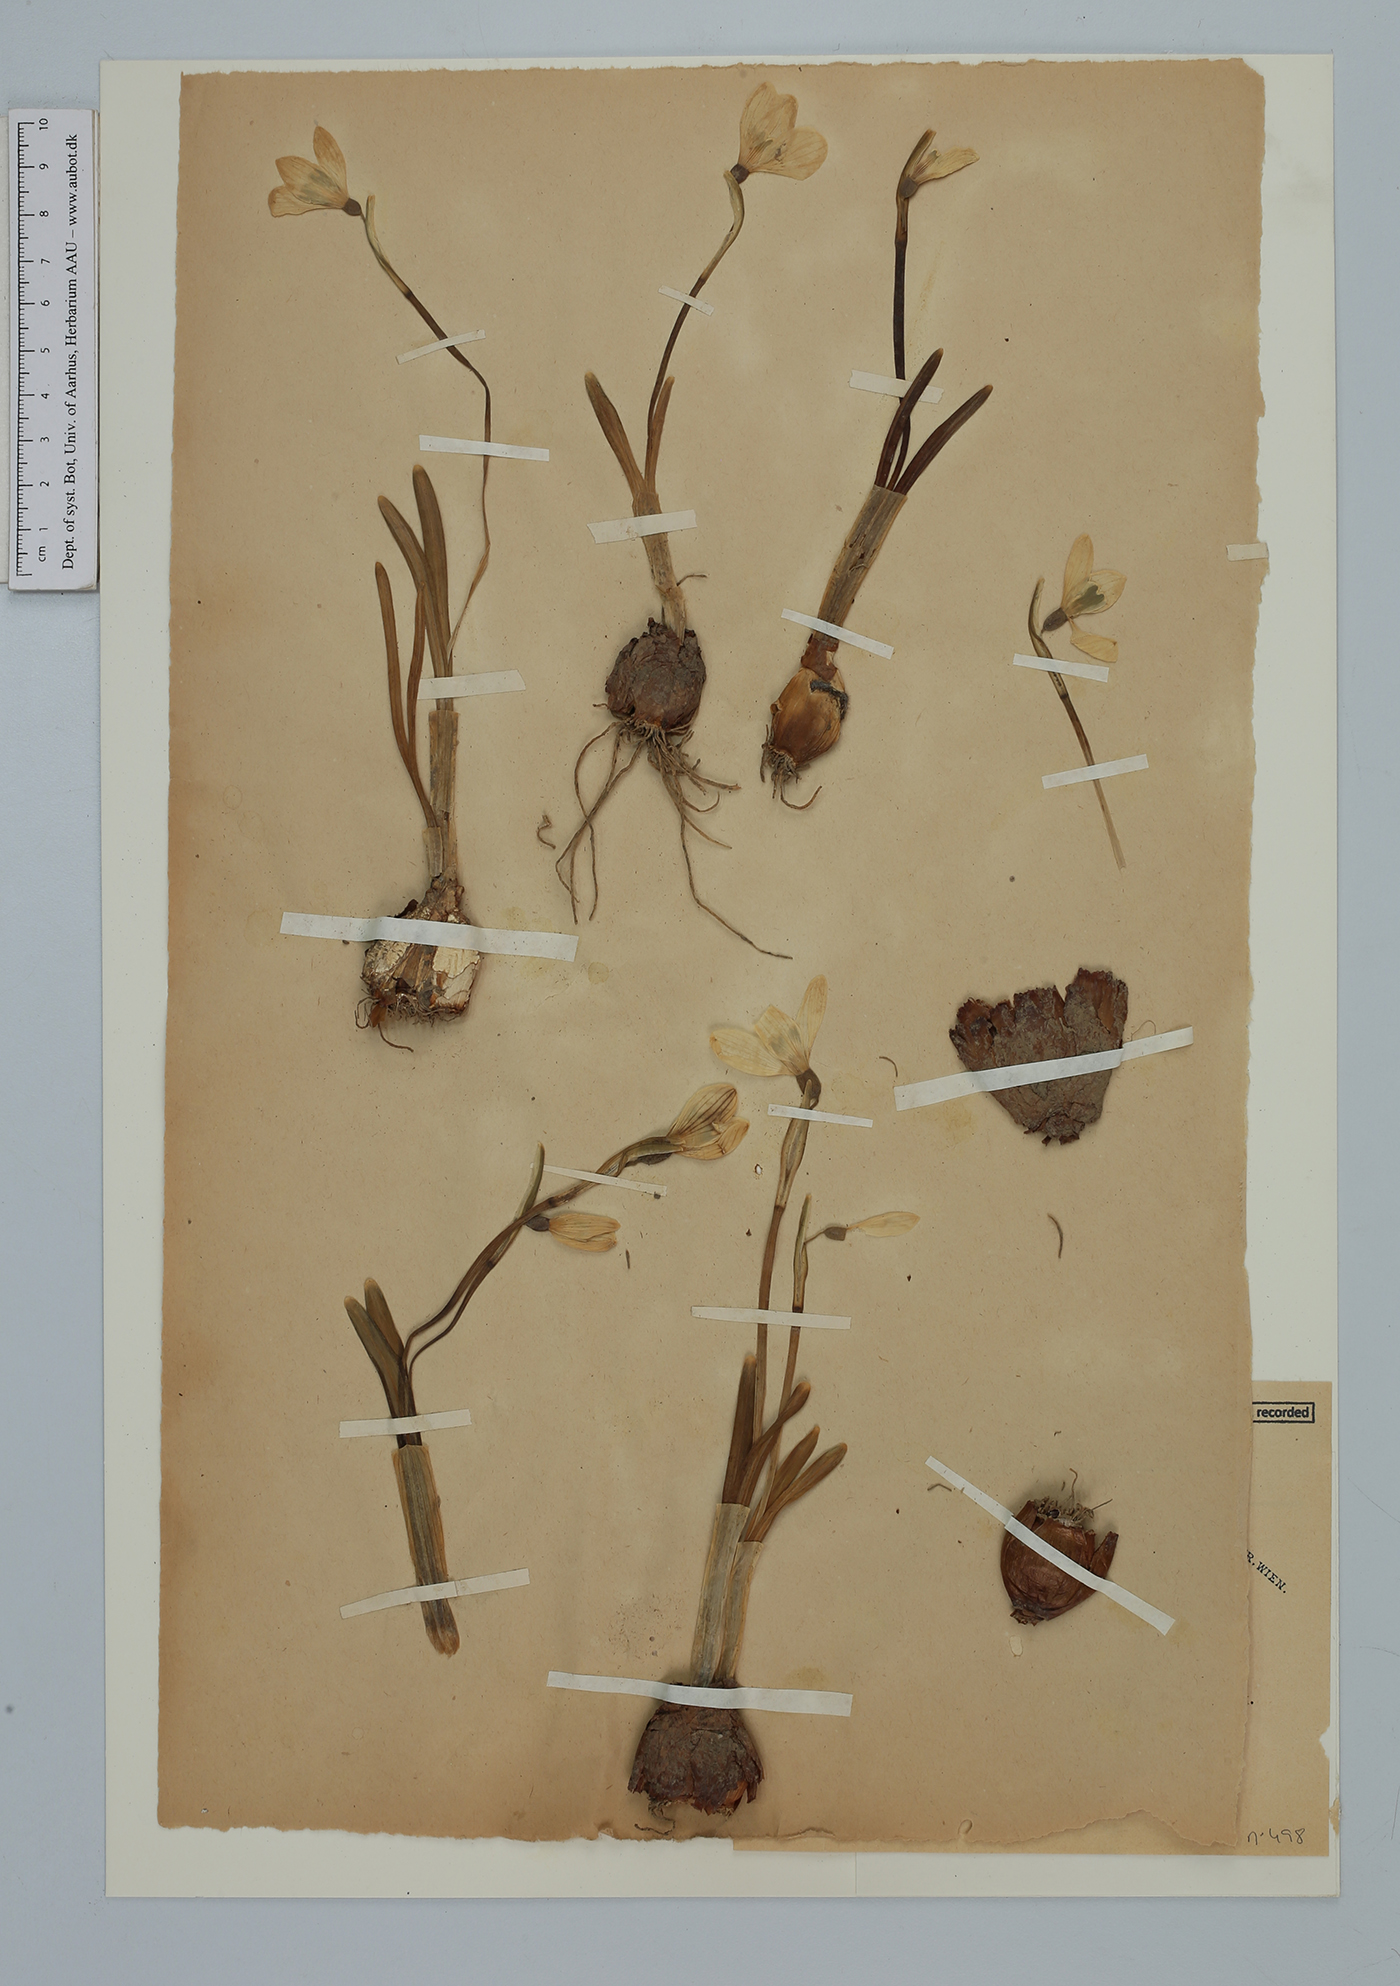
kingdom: Plantae
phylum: Tracheophyta
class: Liliopsida
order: Asparagales
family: Amaryllidaceae
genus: Galanthus
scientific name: Galanthus plicatus
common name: Pleated snowdrop
